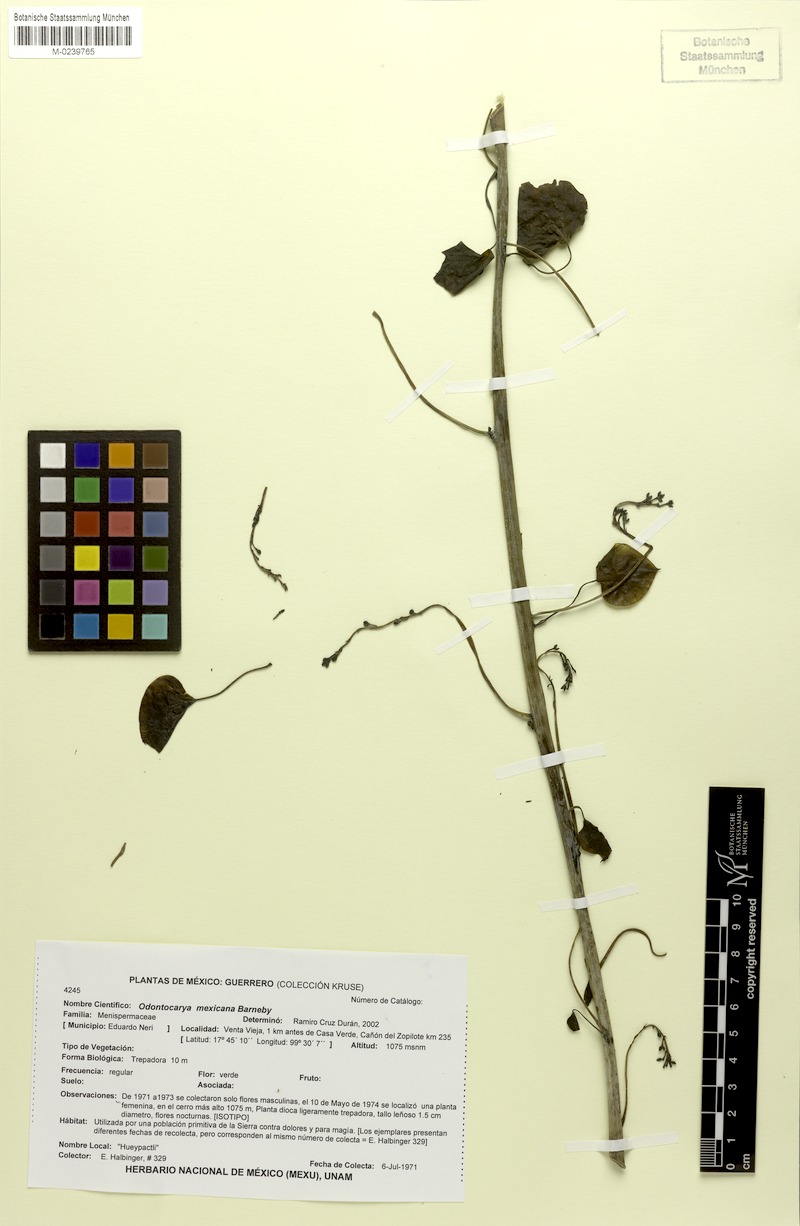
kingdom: Plantae
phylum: Tracheophyta
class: Magnoliopsida
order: Ranunculales
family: Menispermaceae
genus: Odontocarya
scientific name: Odontocarya mexicana
